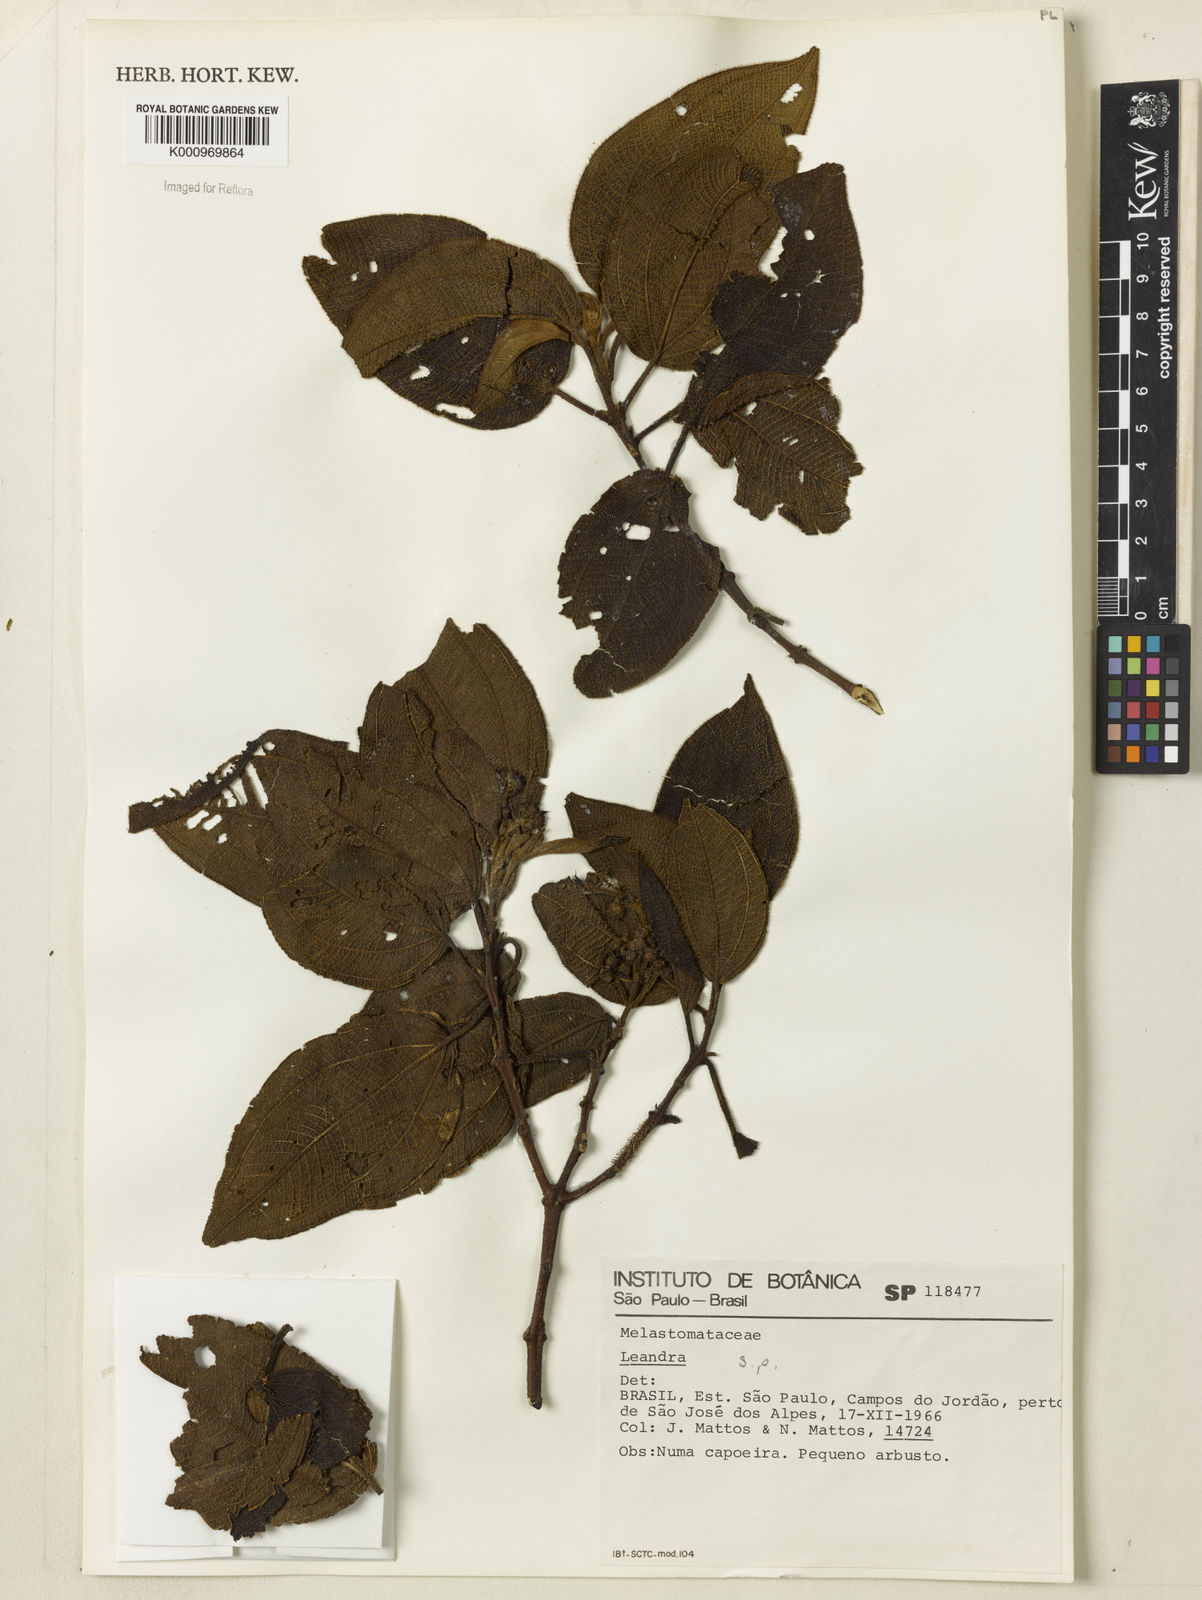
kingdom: Plantae
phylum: Tracheophyta
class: Magnoliopsida
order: Myrtales
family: Melastomataceae
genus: Miconia
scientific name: Miconia
